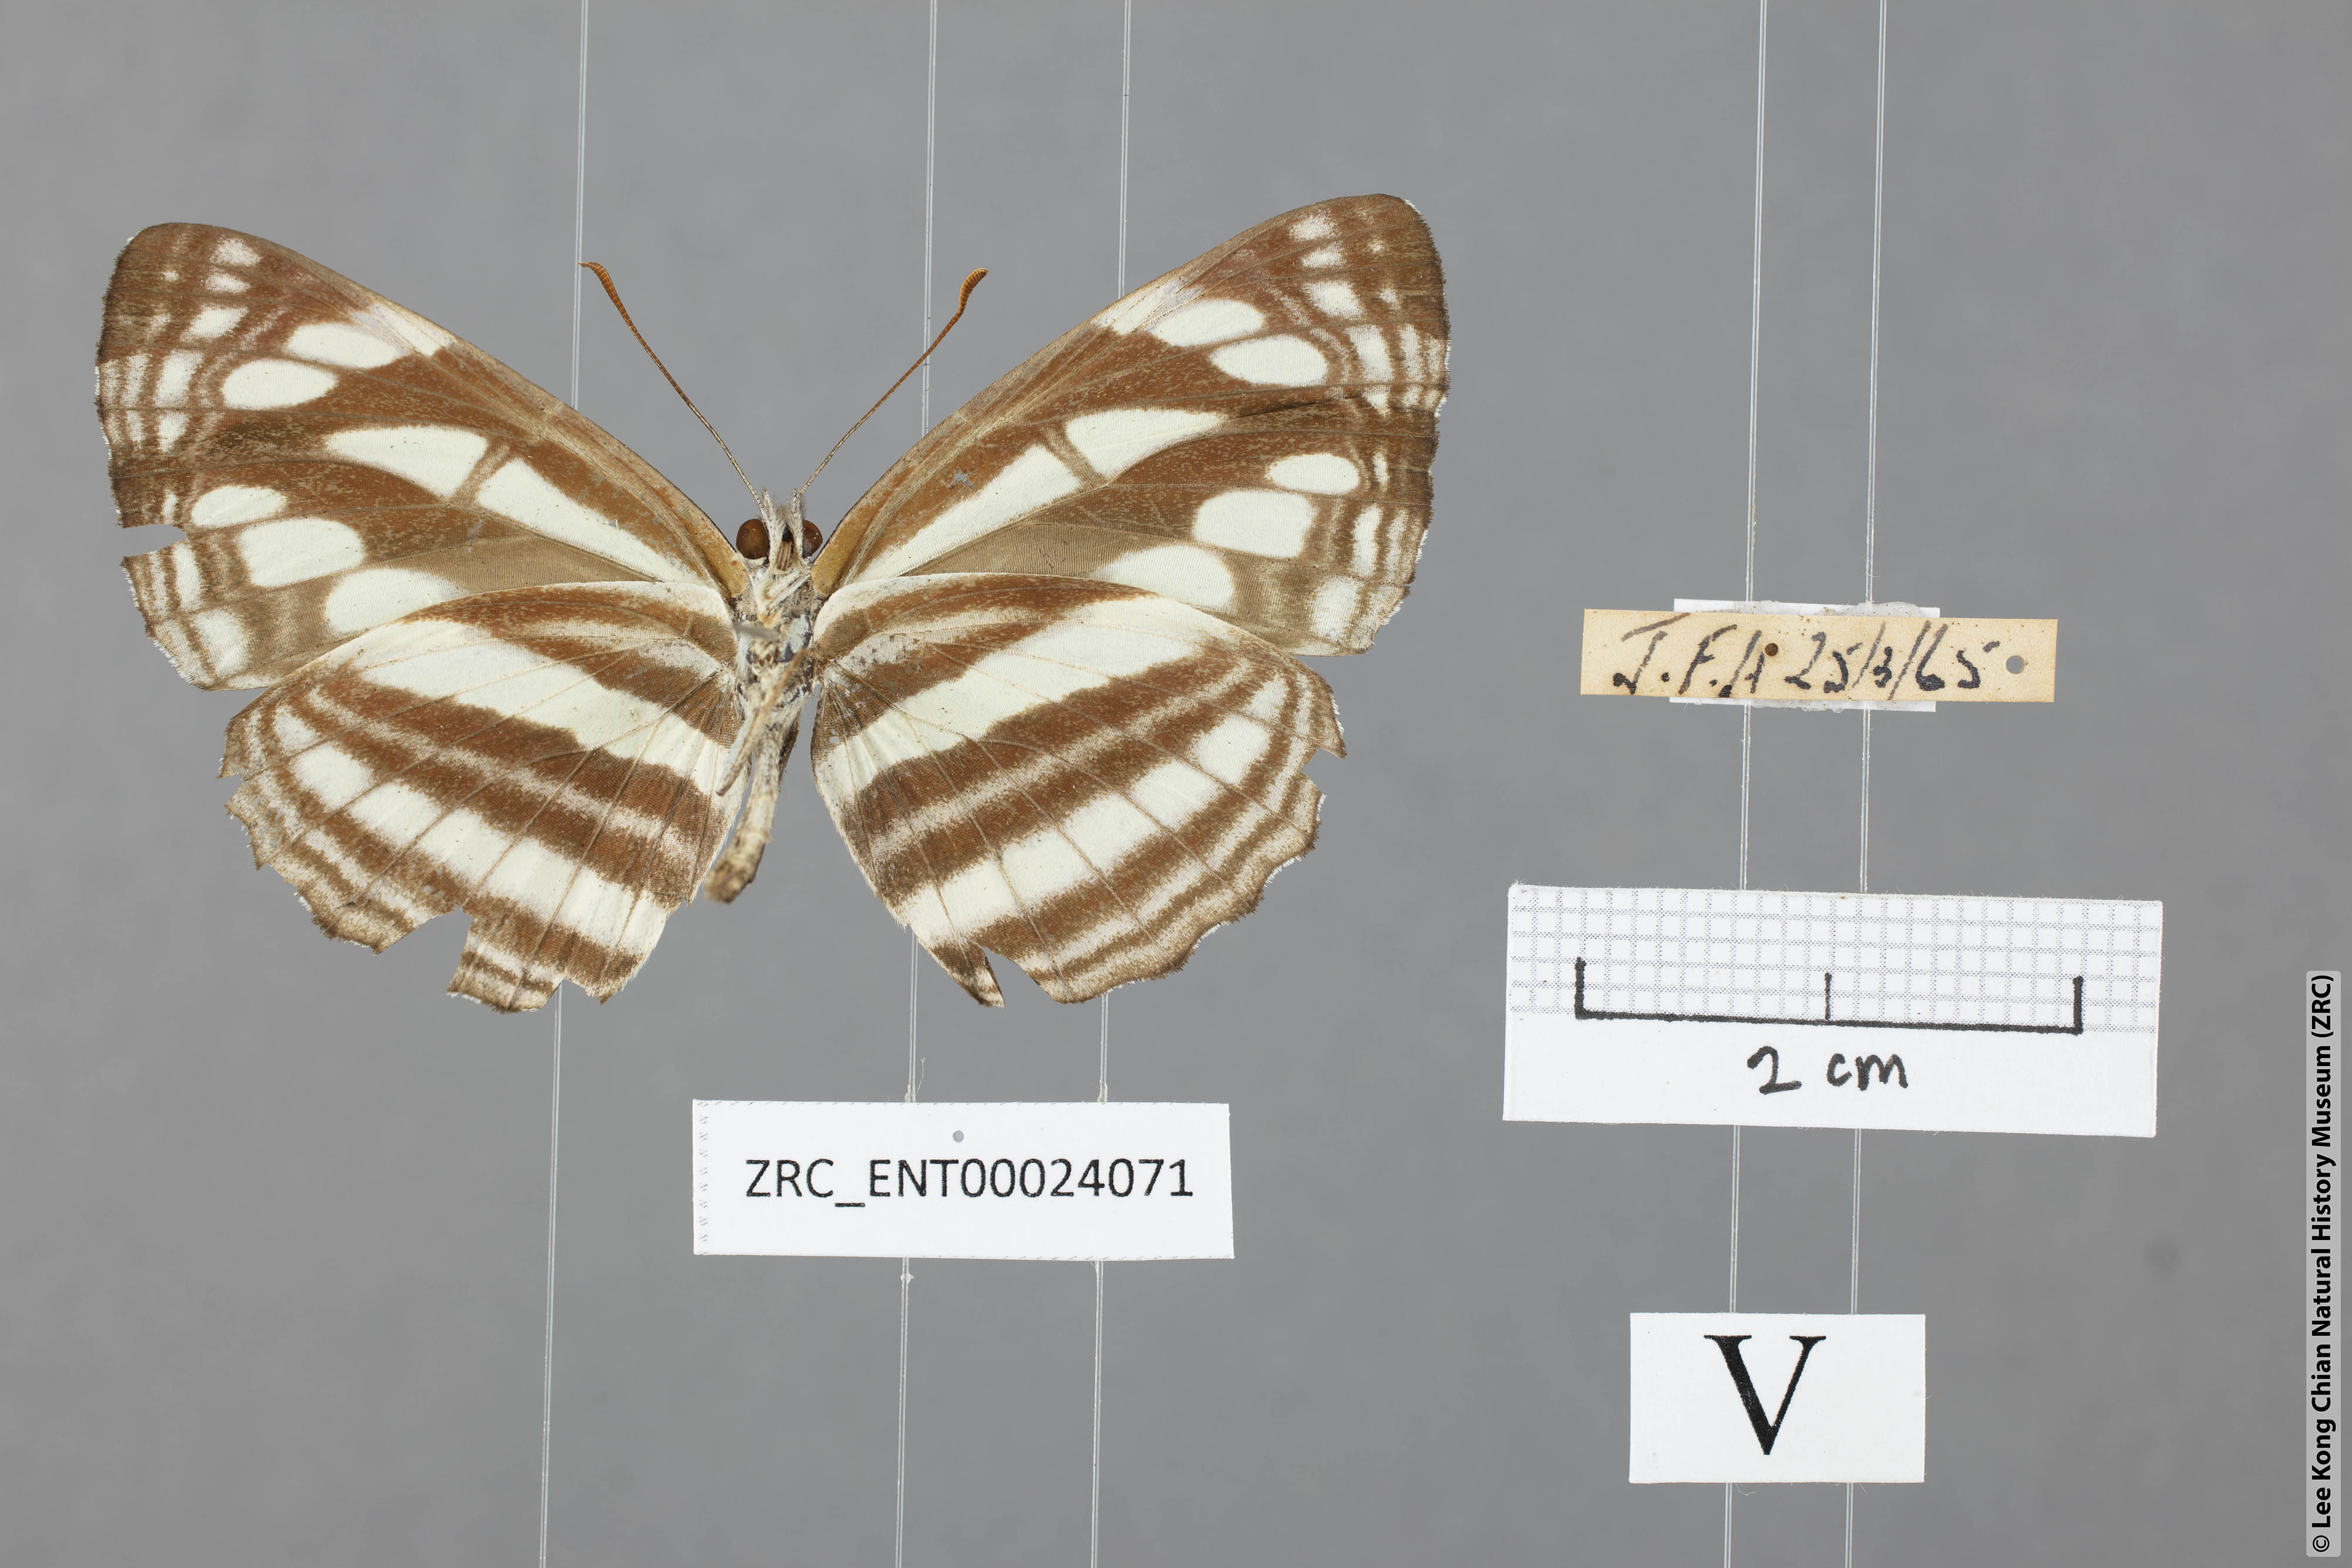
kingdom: Animalia
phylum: Arthropoda
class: Insecta
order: Lepidoptera
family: Nymphalidae
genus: Neptis
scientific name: Neptis soma
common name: Cream-spotted sailor
